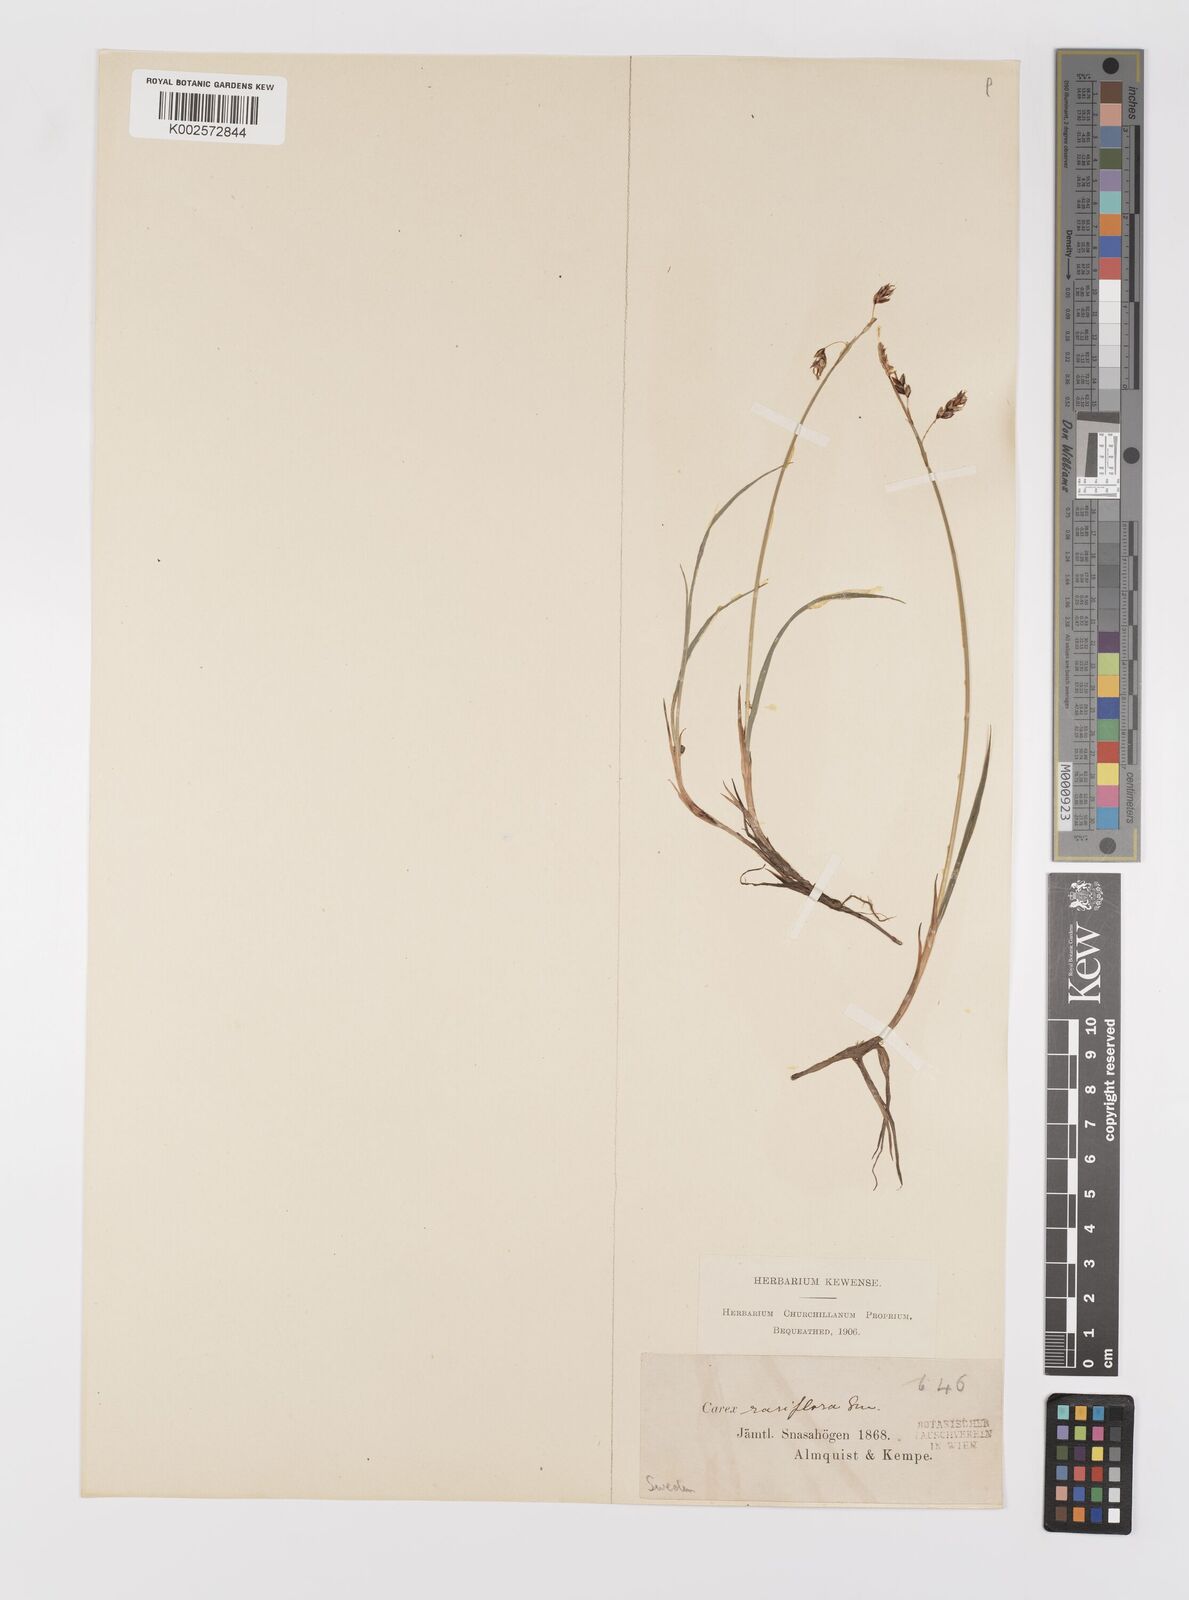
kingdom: Plantae
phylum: Tracheophyta
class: Liliopsida
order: Poales
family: Cyperaceae
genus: Carex
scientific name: Carex rariflora
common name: Loose-flowered alpine sedge
